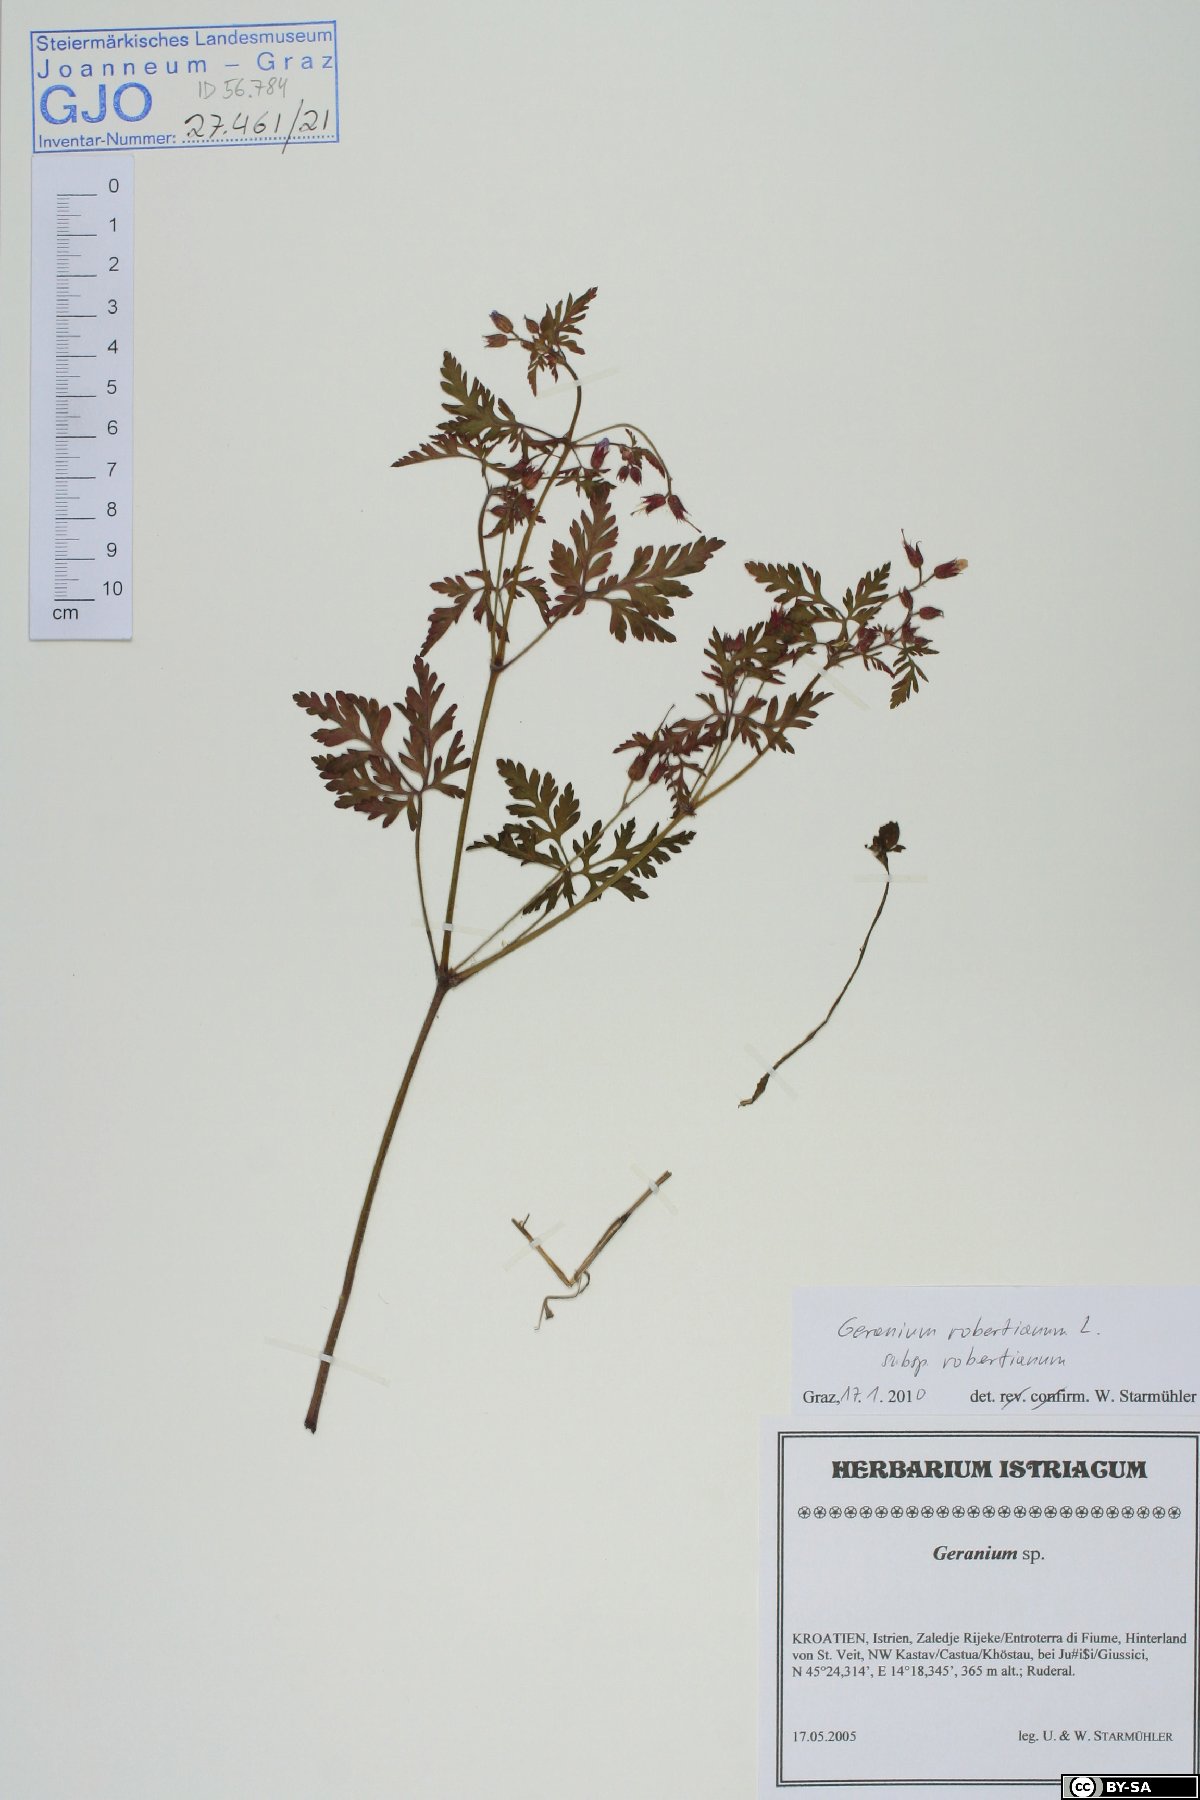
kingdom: Plantae
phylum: Tracheophyta
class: Magnoliopsida
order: Geraniales
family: Geraniaceae
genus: Geranium
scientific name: Geranium robertianum
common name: Herb-robert
